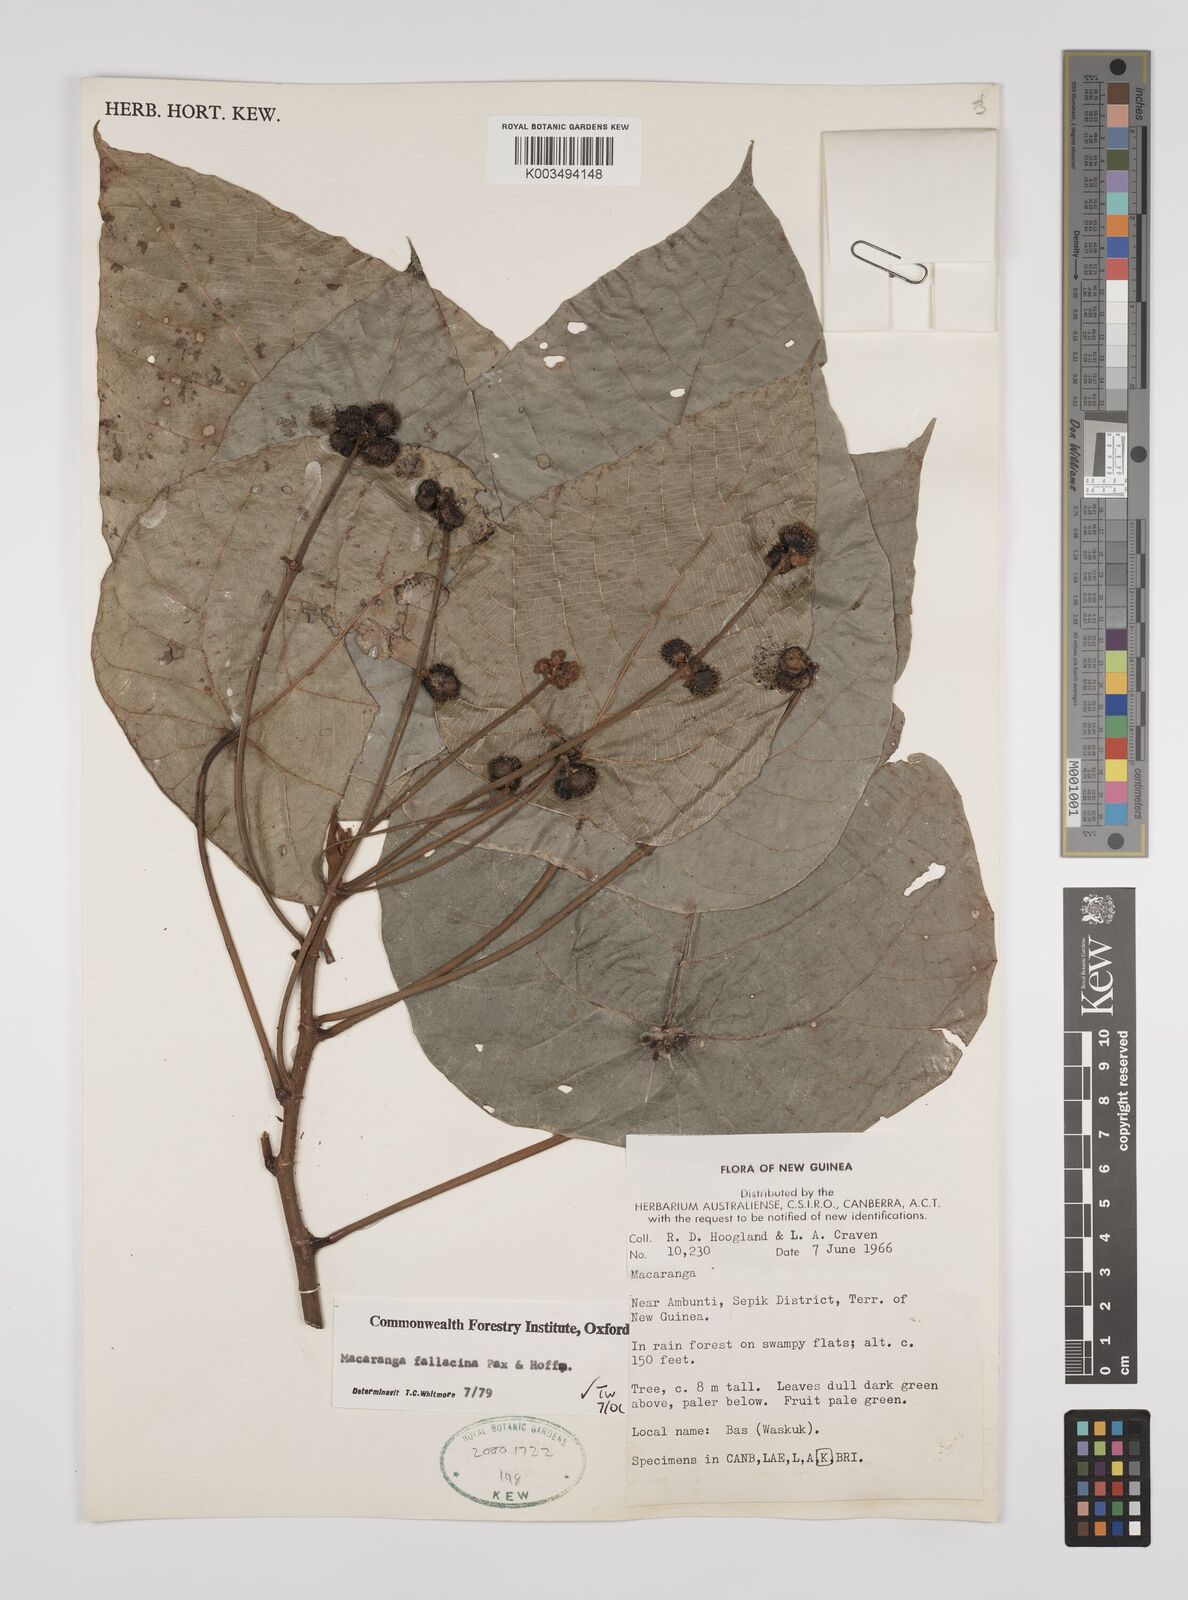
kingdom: Plantae
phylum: Tracheophyta
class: Magnoliopsida
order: Malpighiales
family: Euphorbiaceae
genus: Macaranga
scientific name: Macaranga fallacina
